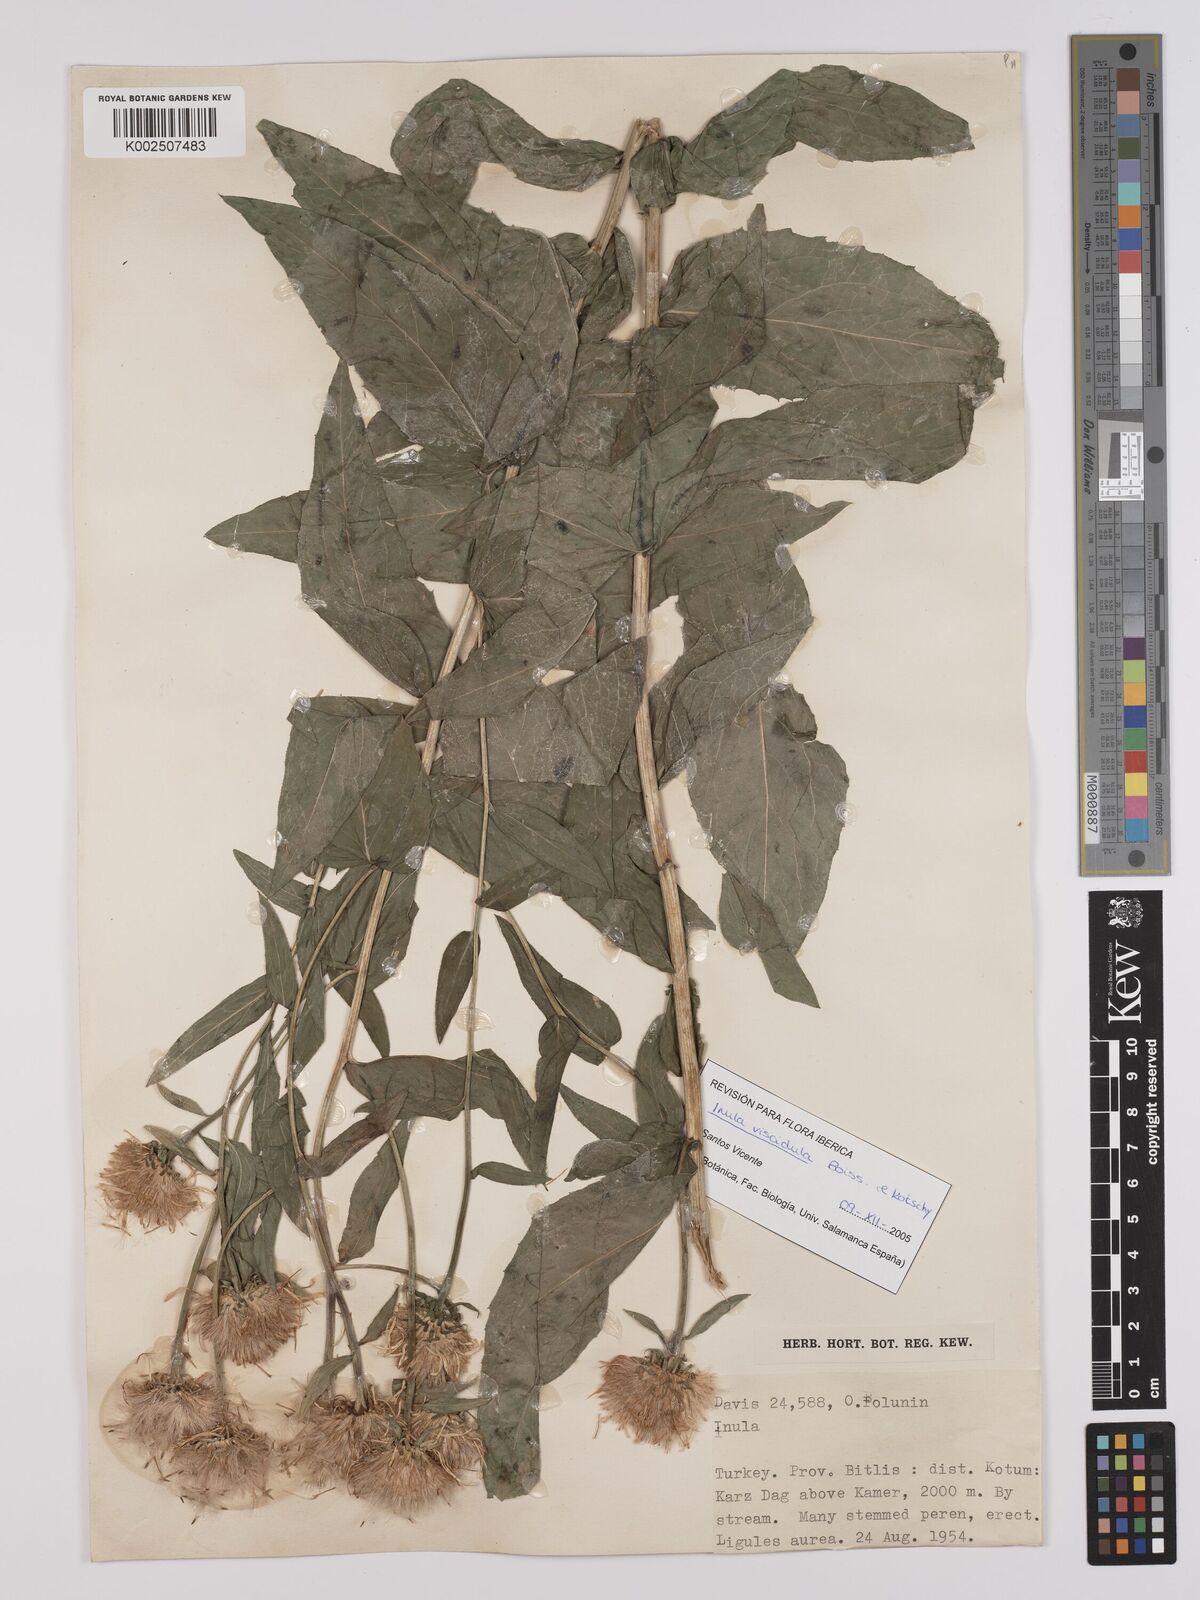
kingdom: Plantae
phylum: Tracheophyta
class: Magnoliopsida
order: Asterales
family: Asteraceae
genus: Pentanema
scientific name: Pentanema salicinum
